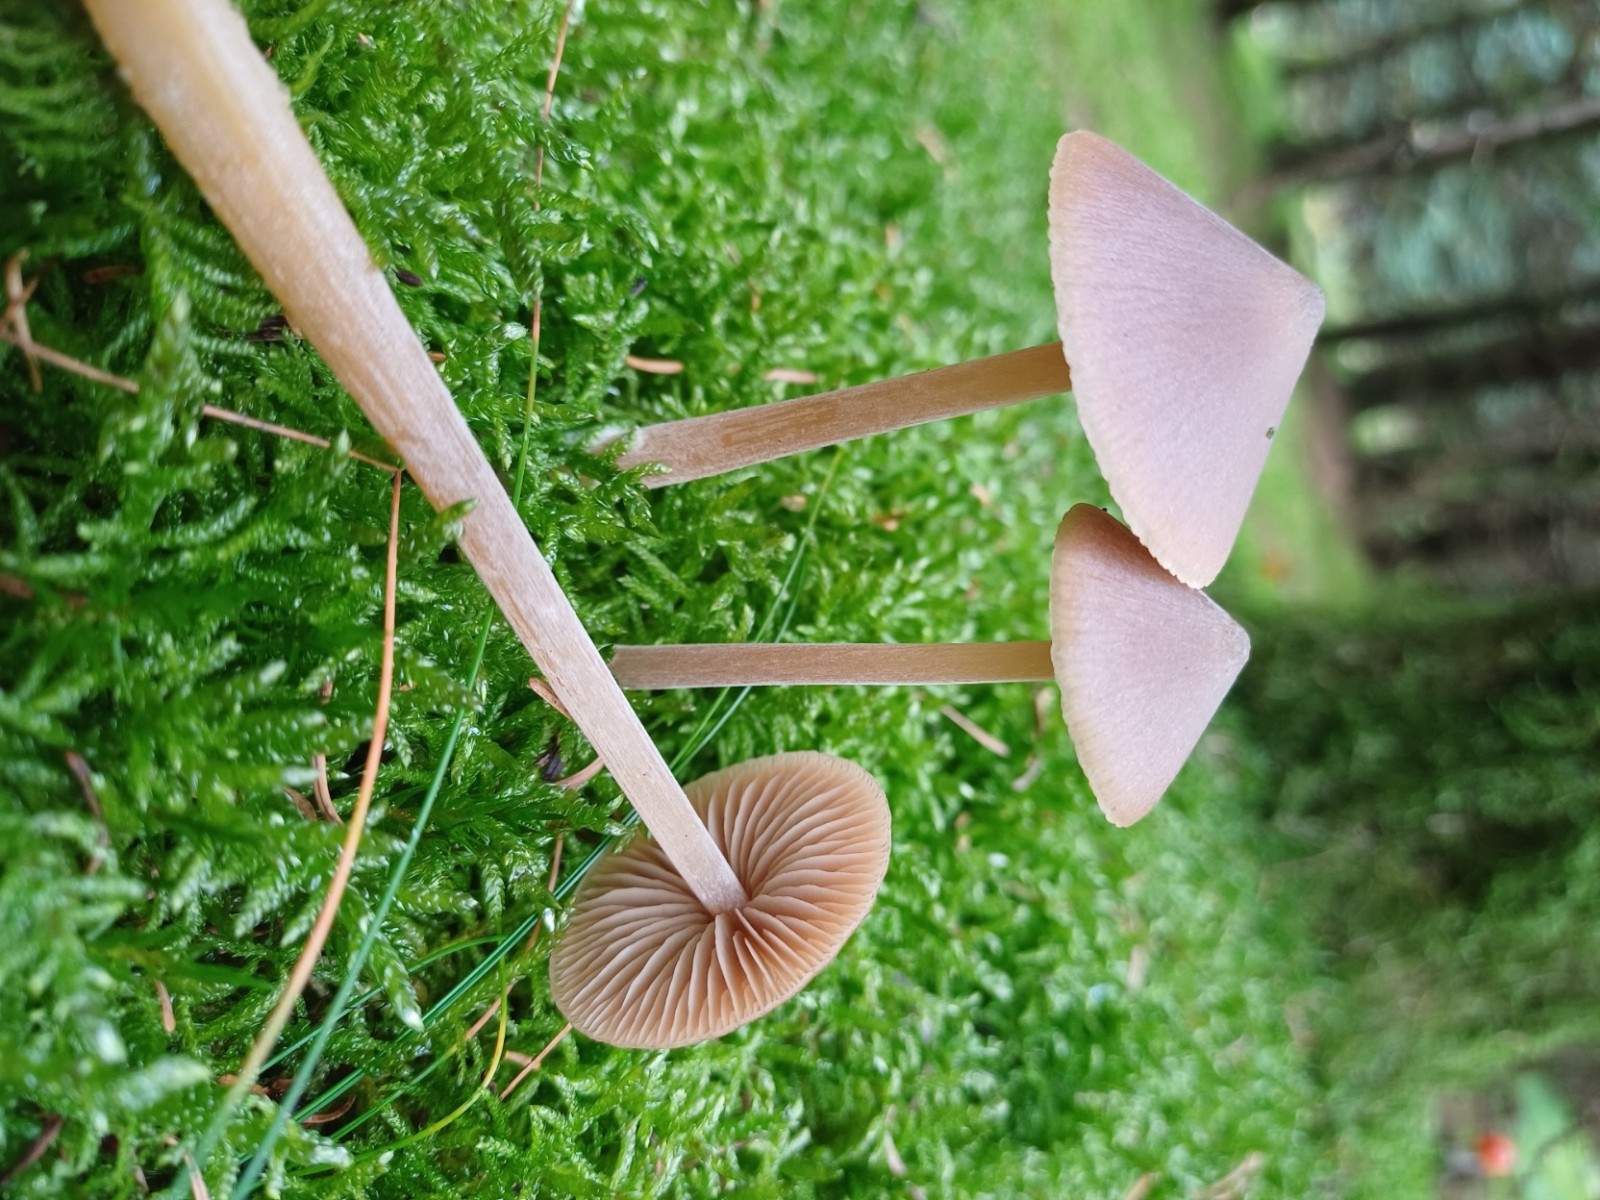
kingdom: Fungi
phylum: Basidiomycota
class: Agaricomycetes
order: Agaricales
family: Entolomataceae
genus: Entoloma
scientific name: Entoloma cetratum
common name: voks-rødblad
